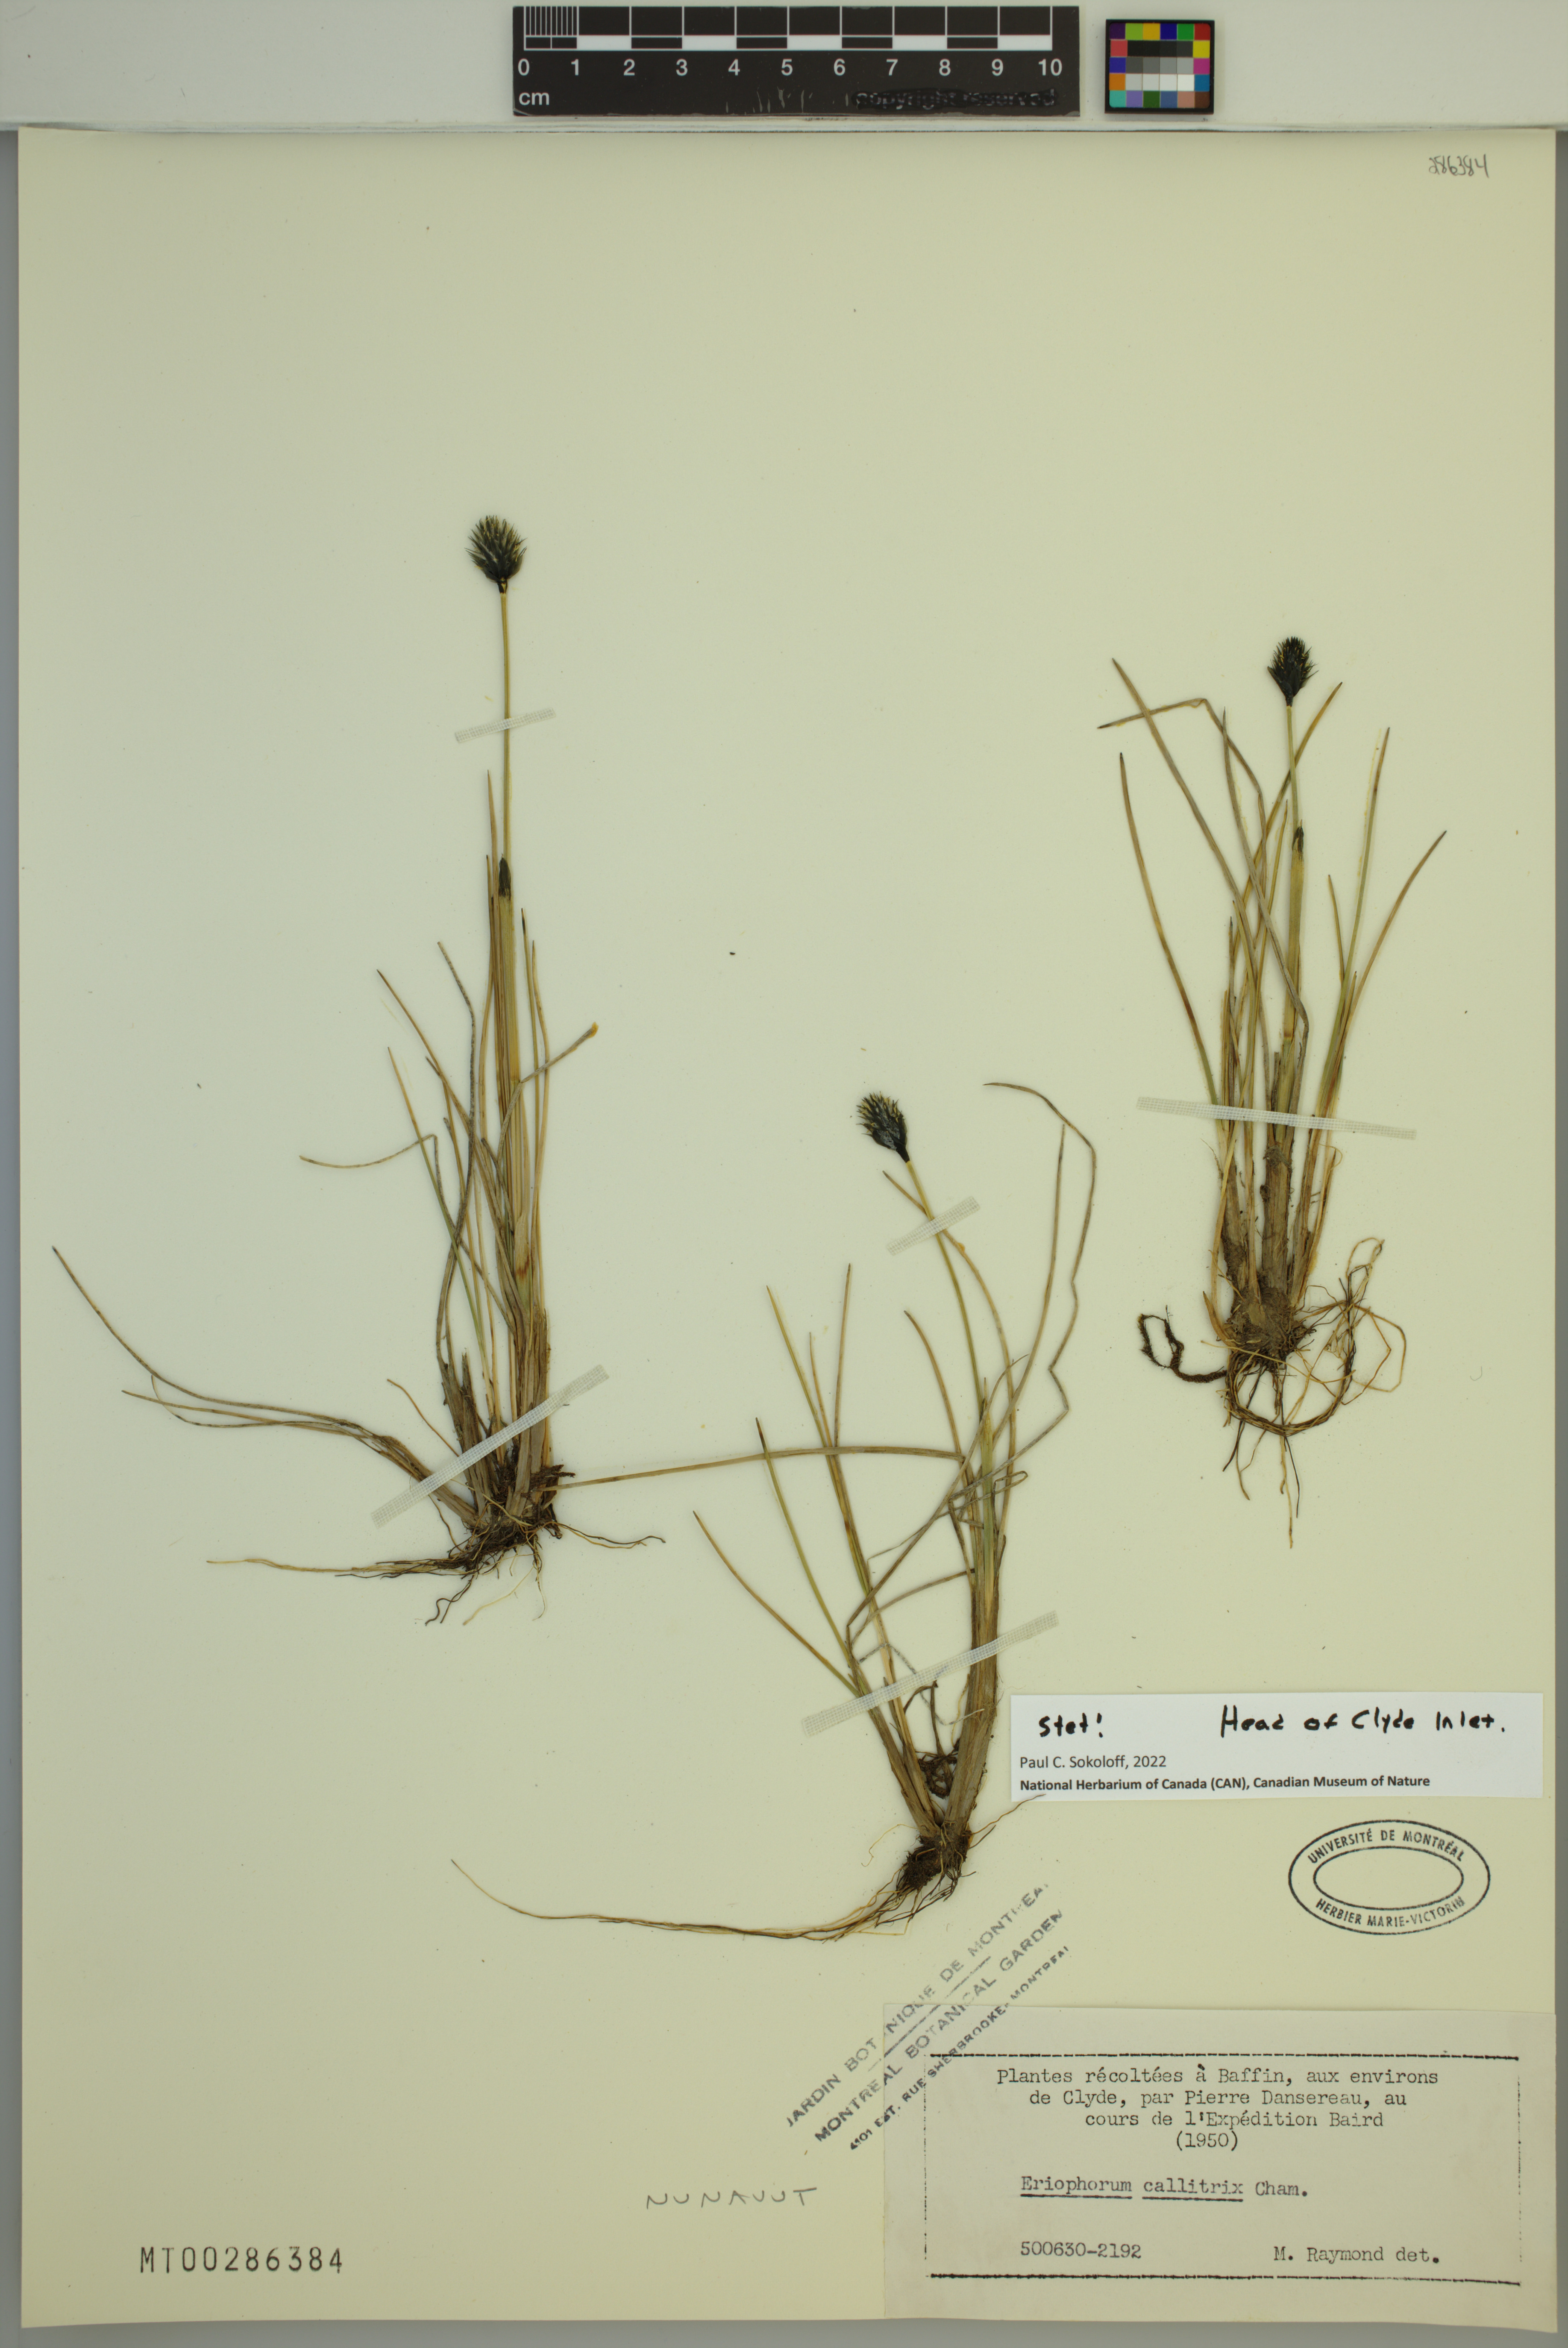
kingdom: Plantae
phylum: Tracheophyta
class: Liliopsida
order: Poales
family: Cyperaceae
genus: Eriophorum
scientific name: Eriophorum callitrix
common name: Arctic cottongrass
